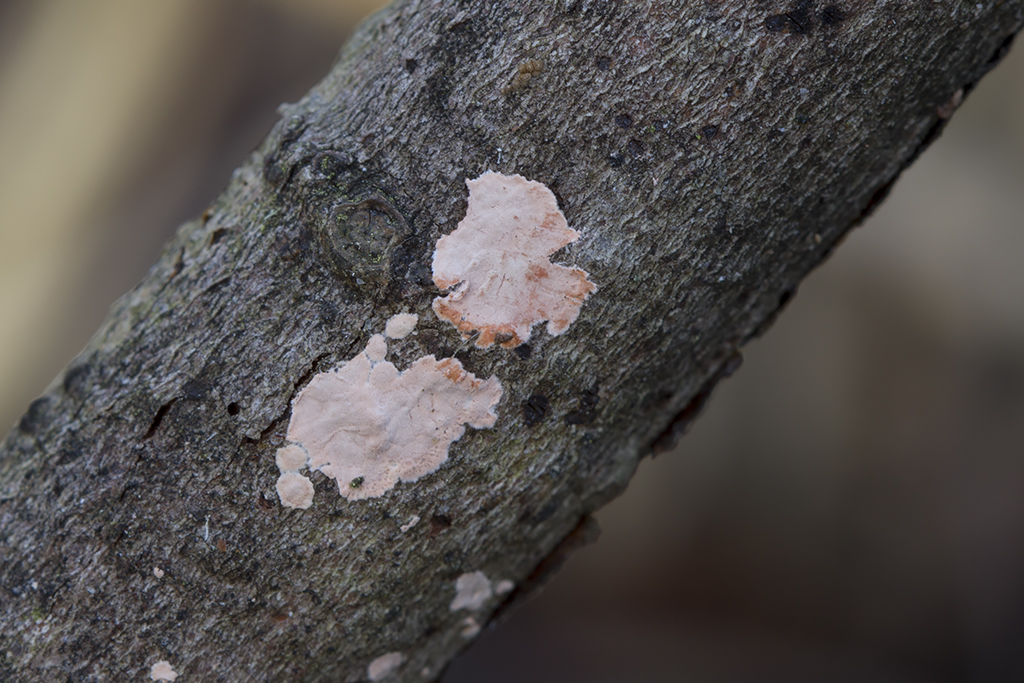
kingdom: Fungi
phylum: Basidiomycota
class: Agaricomycetes
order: Corticiales
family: Corticiaceae
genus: Corticium
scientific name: Corticium roseum
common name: rosa barkskind
